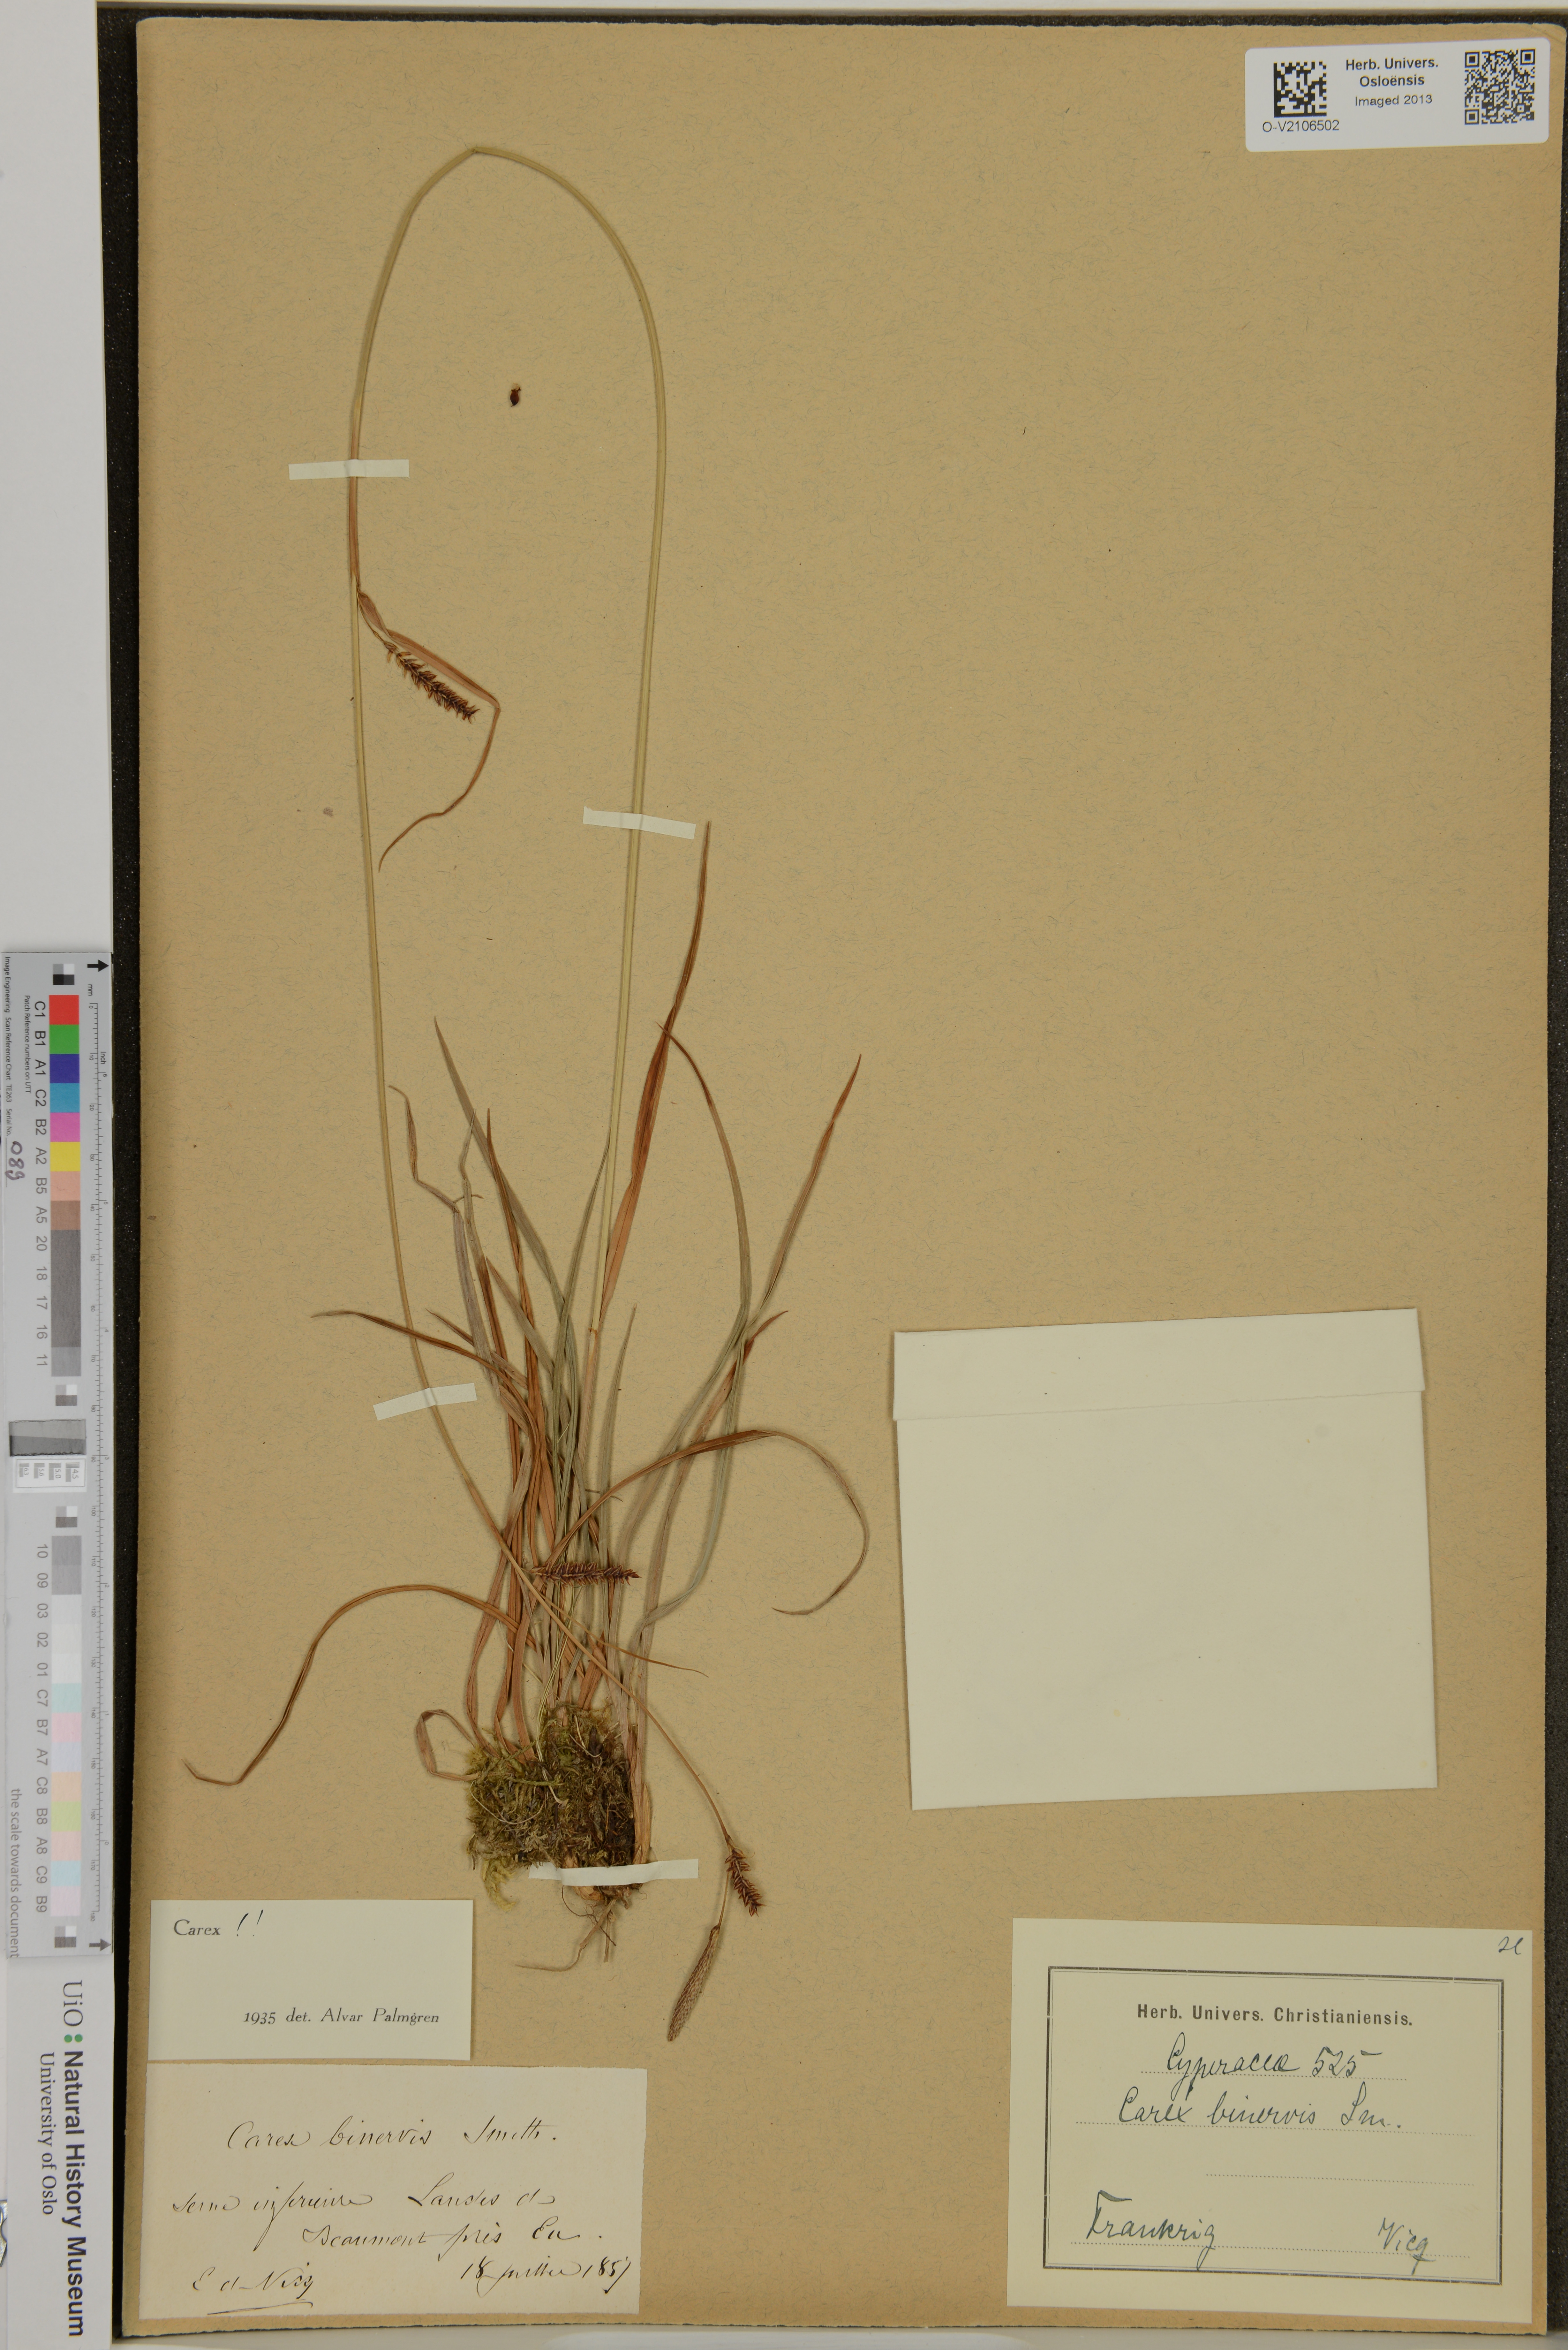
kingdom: Plantae
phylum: Tracheophyta
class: Liliopsida
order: Poales
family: Cyperaceae
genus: Carex
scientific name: Carex binervis
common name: Green-ribbed sedge
